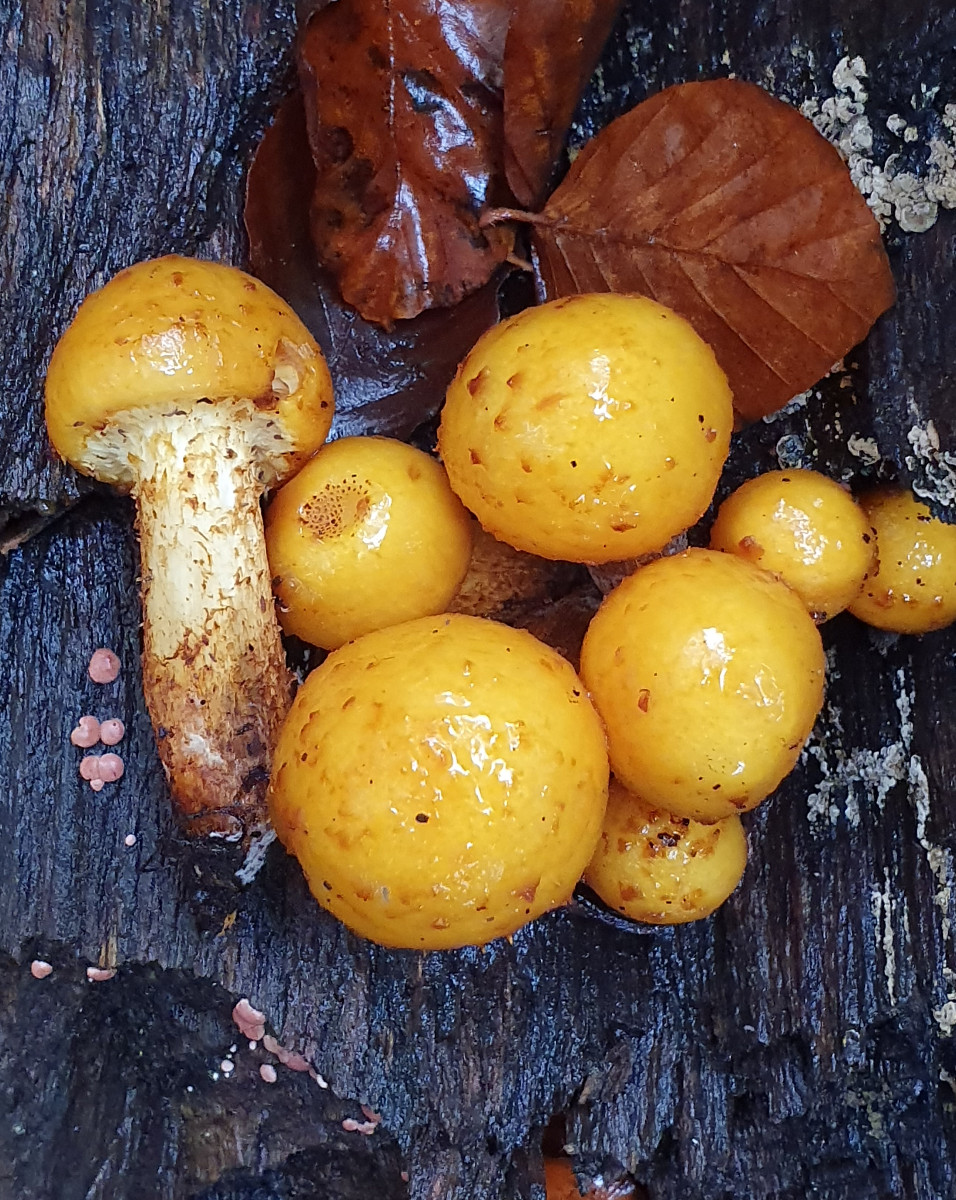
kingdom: Fungi
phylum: Basidiomycota
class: Agaricomycetes
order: Agaricales
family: Strophariaceae
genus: Pholiota
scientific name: Pholiota adiposa
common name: højtsiddende skælhat
